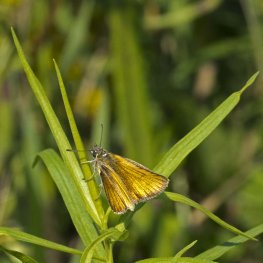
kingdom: Animalia
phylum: Arthropoda
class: Insecta
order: Lepidoptera
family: Hesperiidae
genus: Thymelicus
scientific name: Thymelicus lineola
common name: European Skipper
